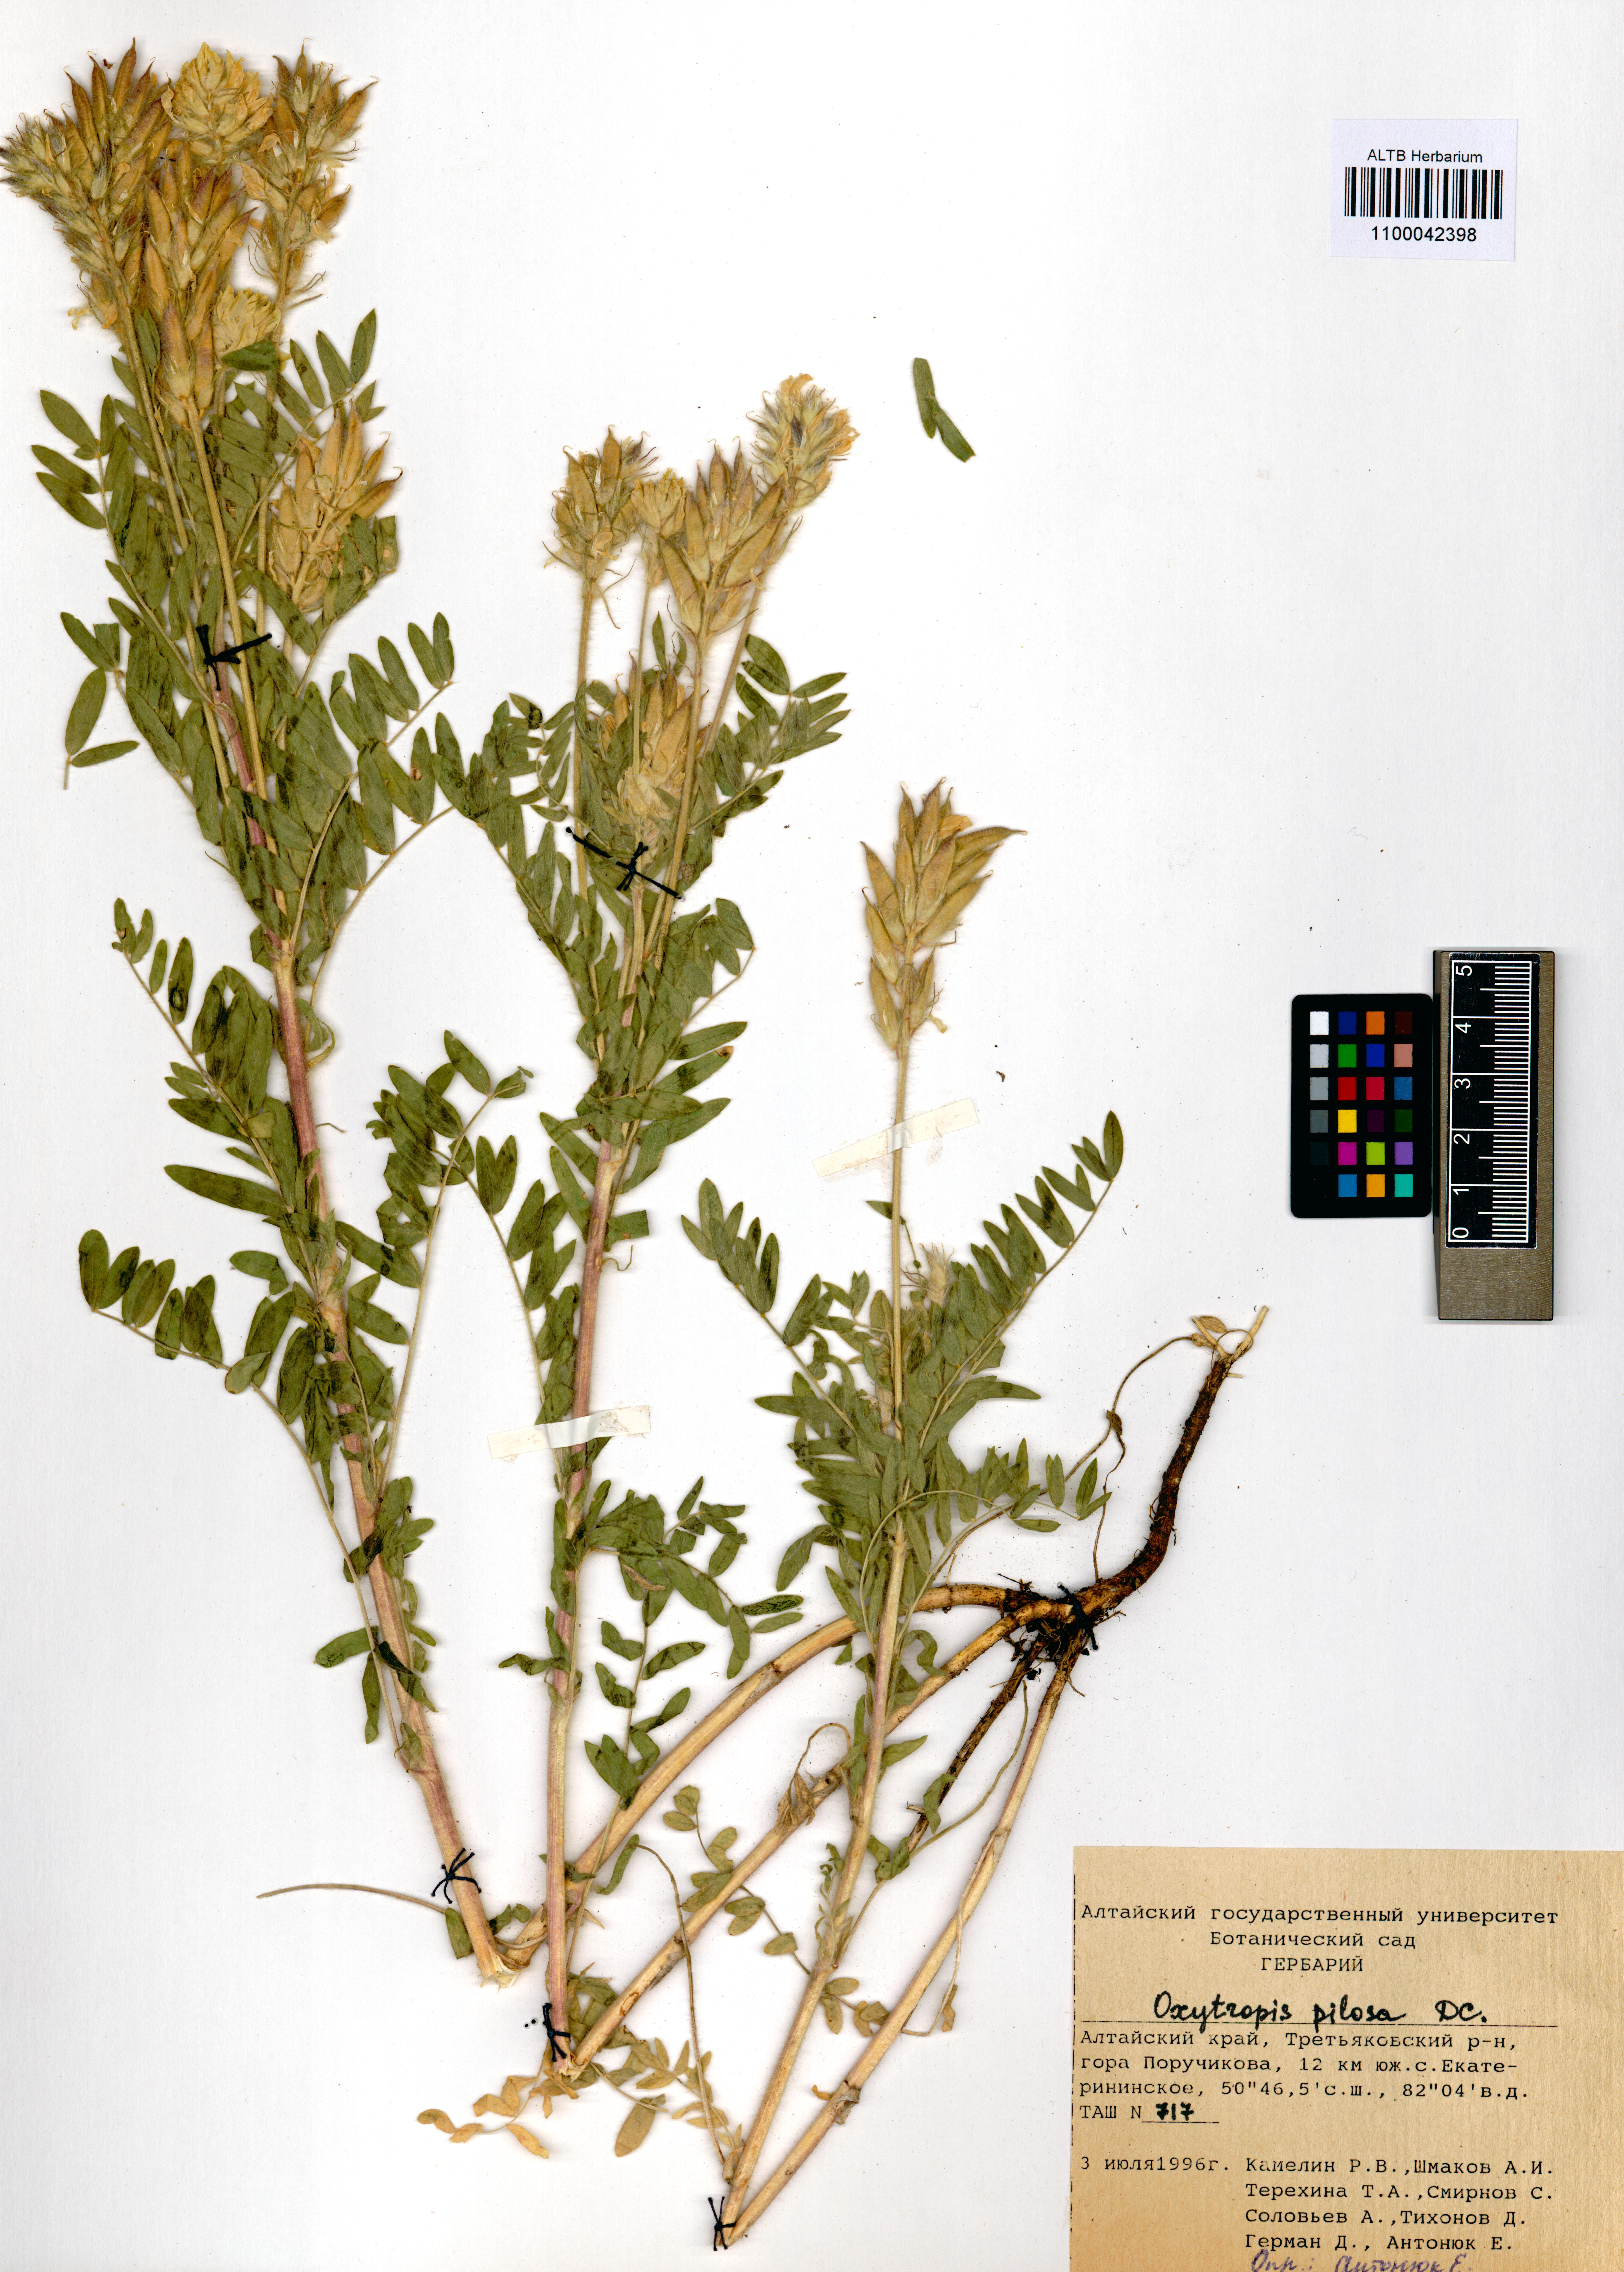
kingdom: Plantae
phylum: Tracheophyta
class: Magnoliopsida
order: Fabales
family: Fabaceae
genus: Oxytropis
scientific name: Oxytropis pilosa
